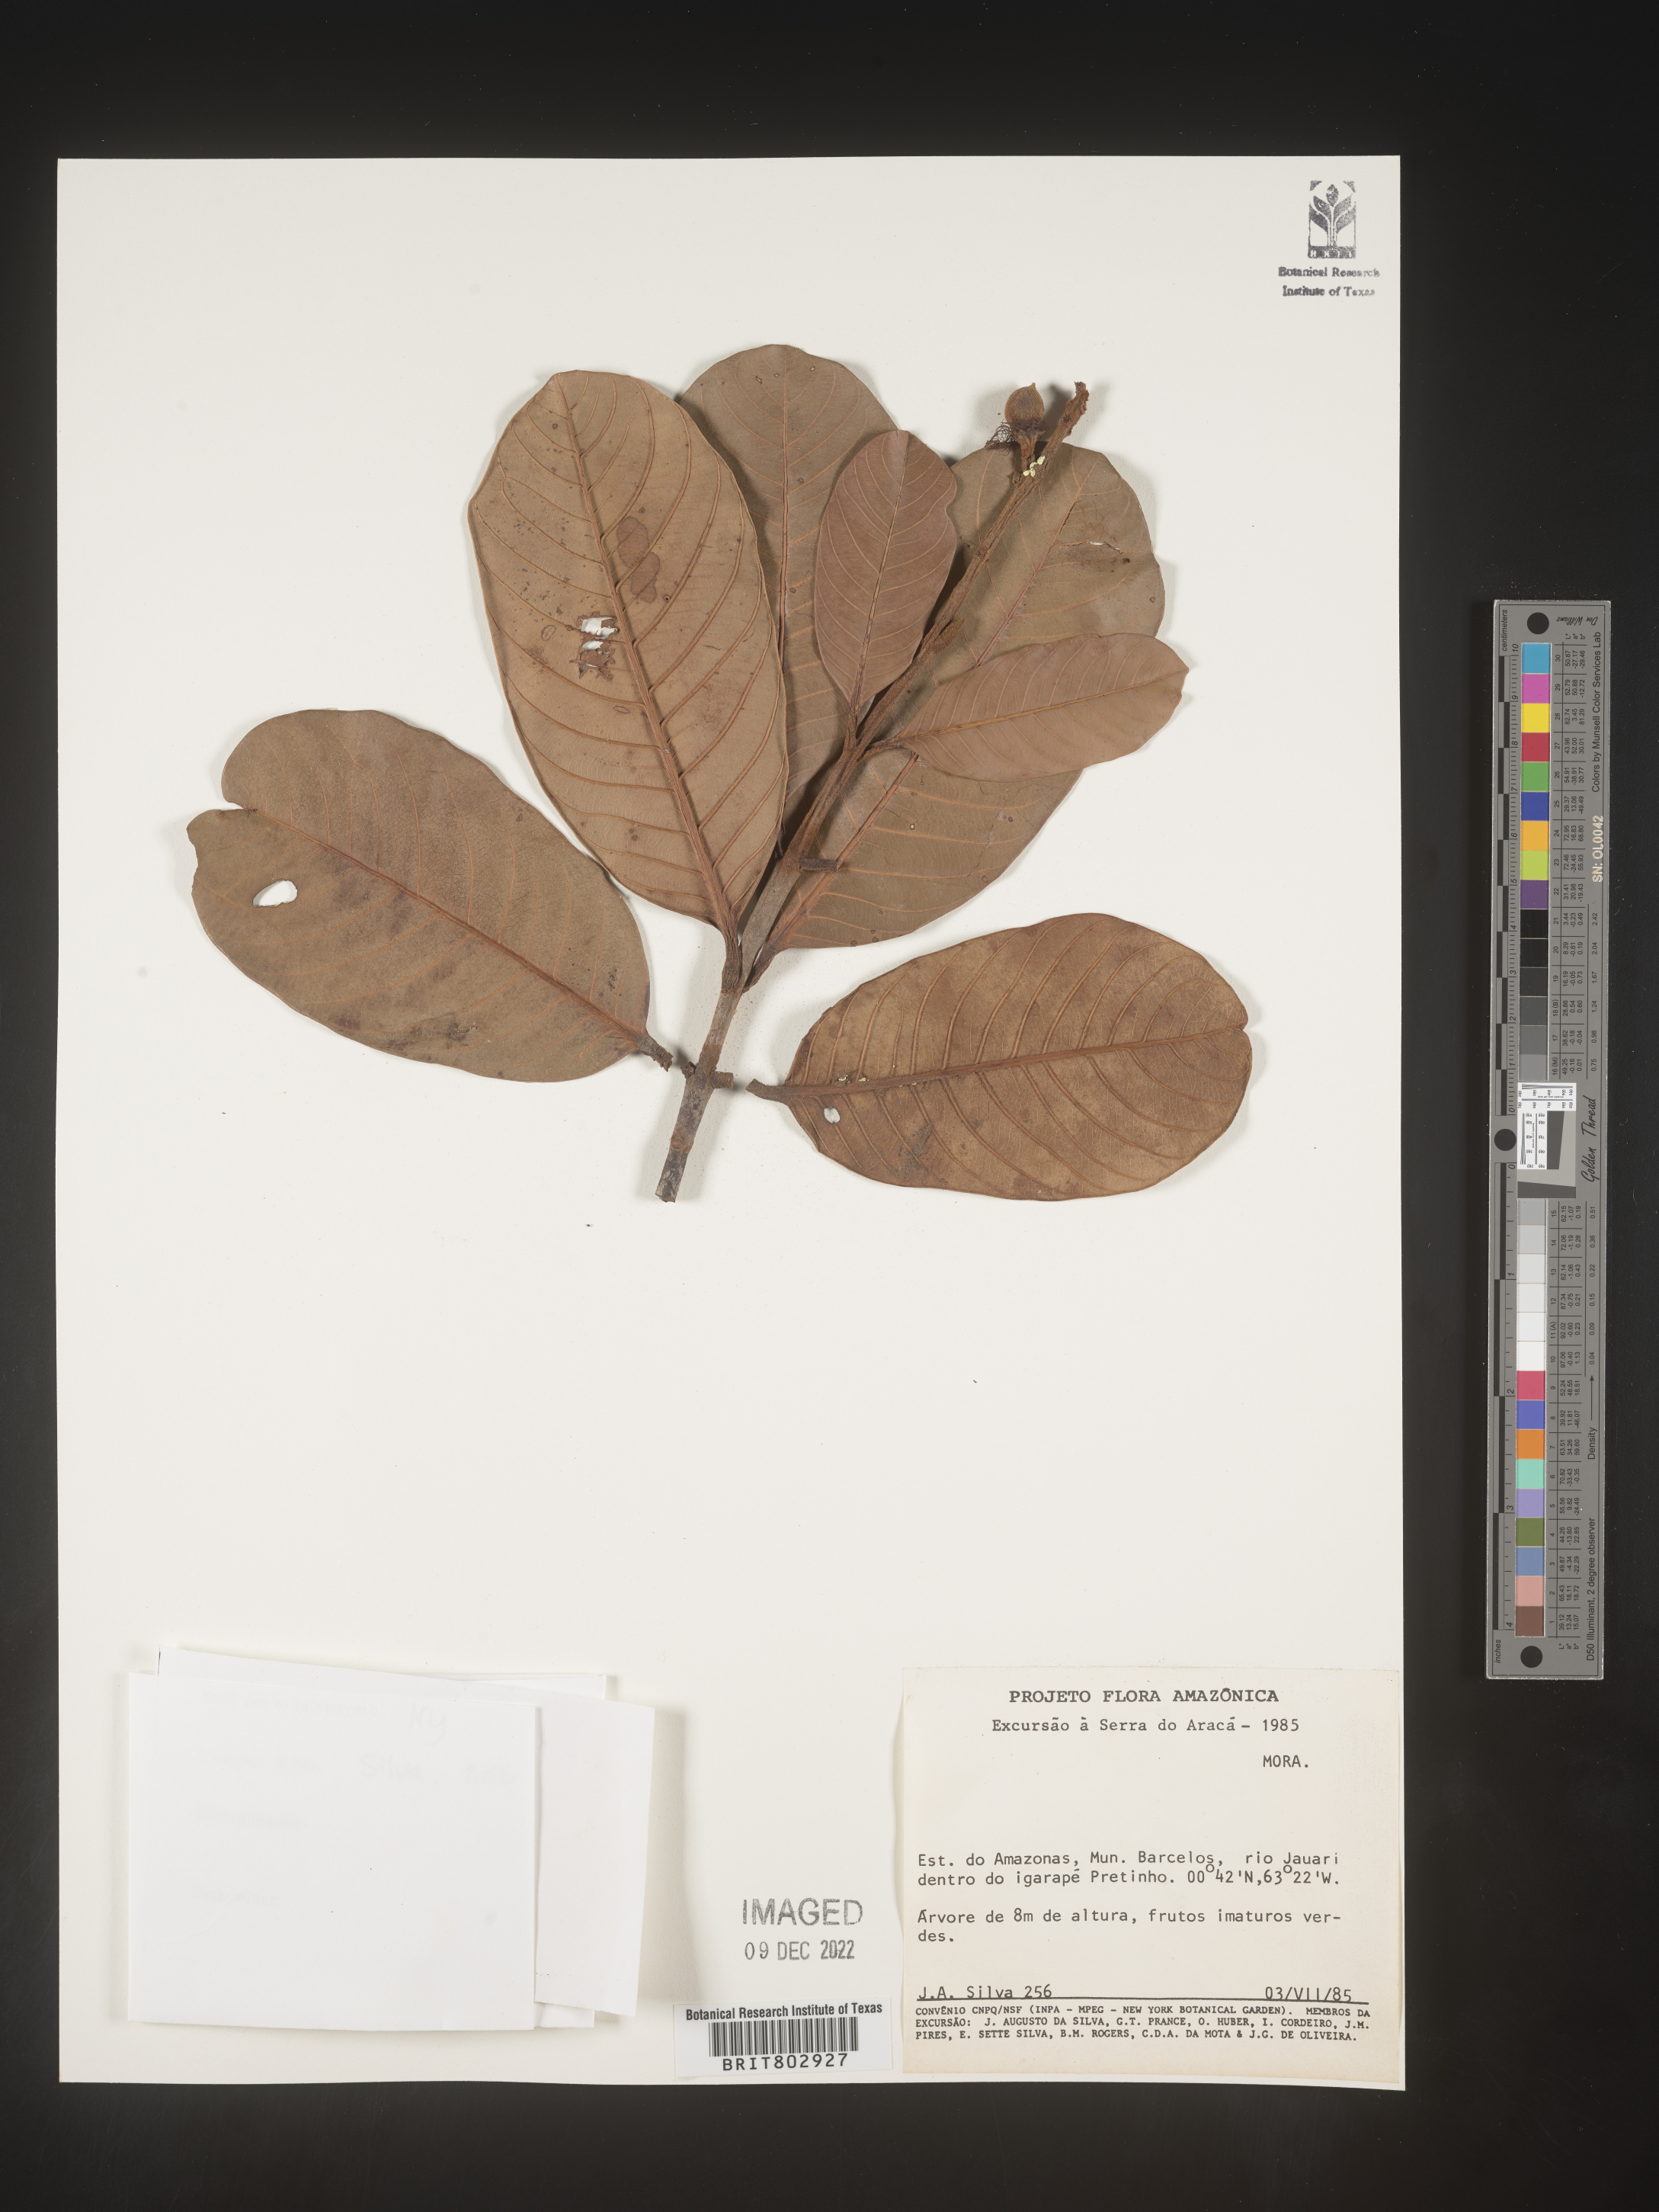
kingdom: Plantae
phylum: Tracheophyta
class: Magnoliopsida
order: Malpighiales
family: Calophyllaceae
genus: Kielmeyera
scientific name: Kielmeyera
